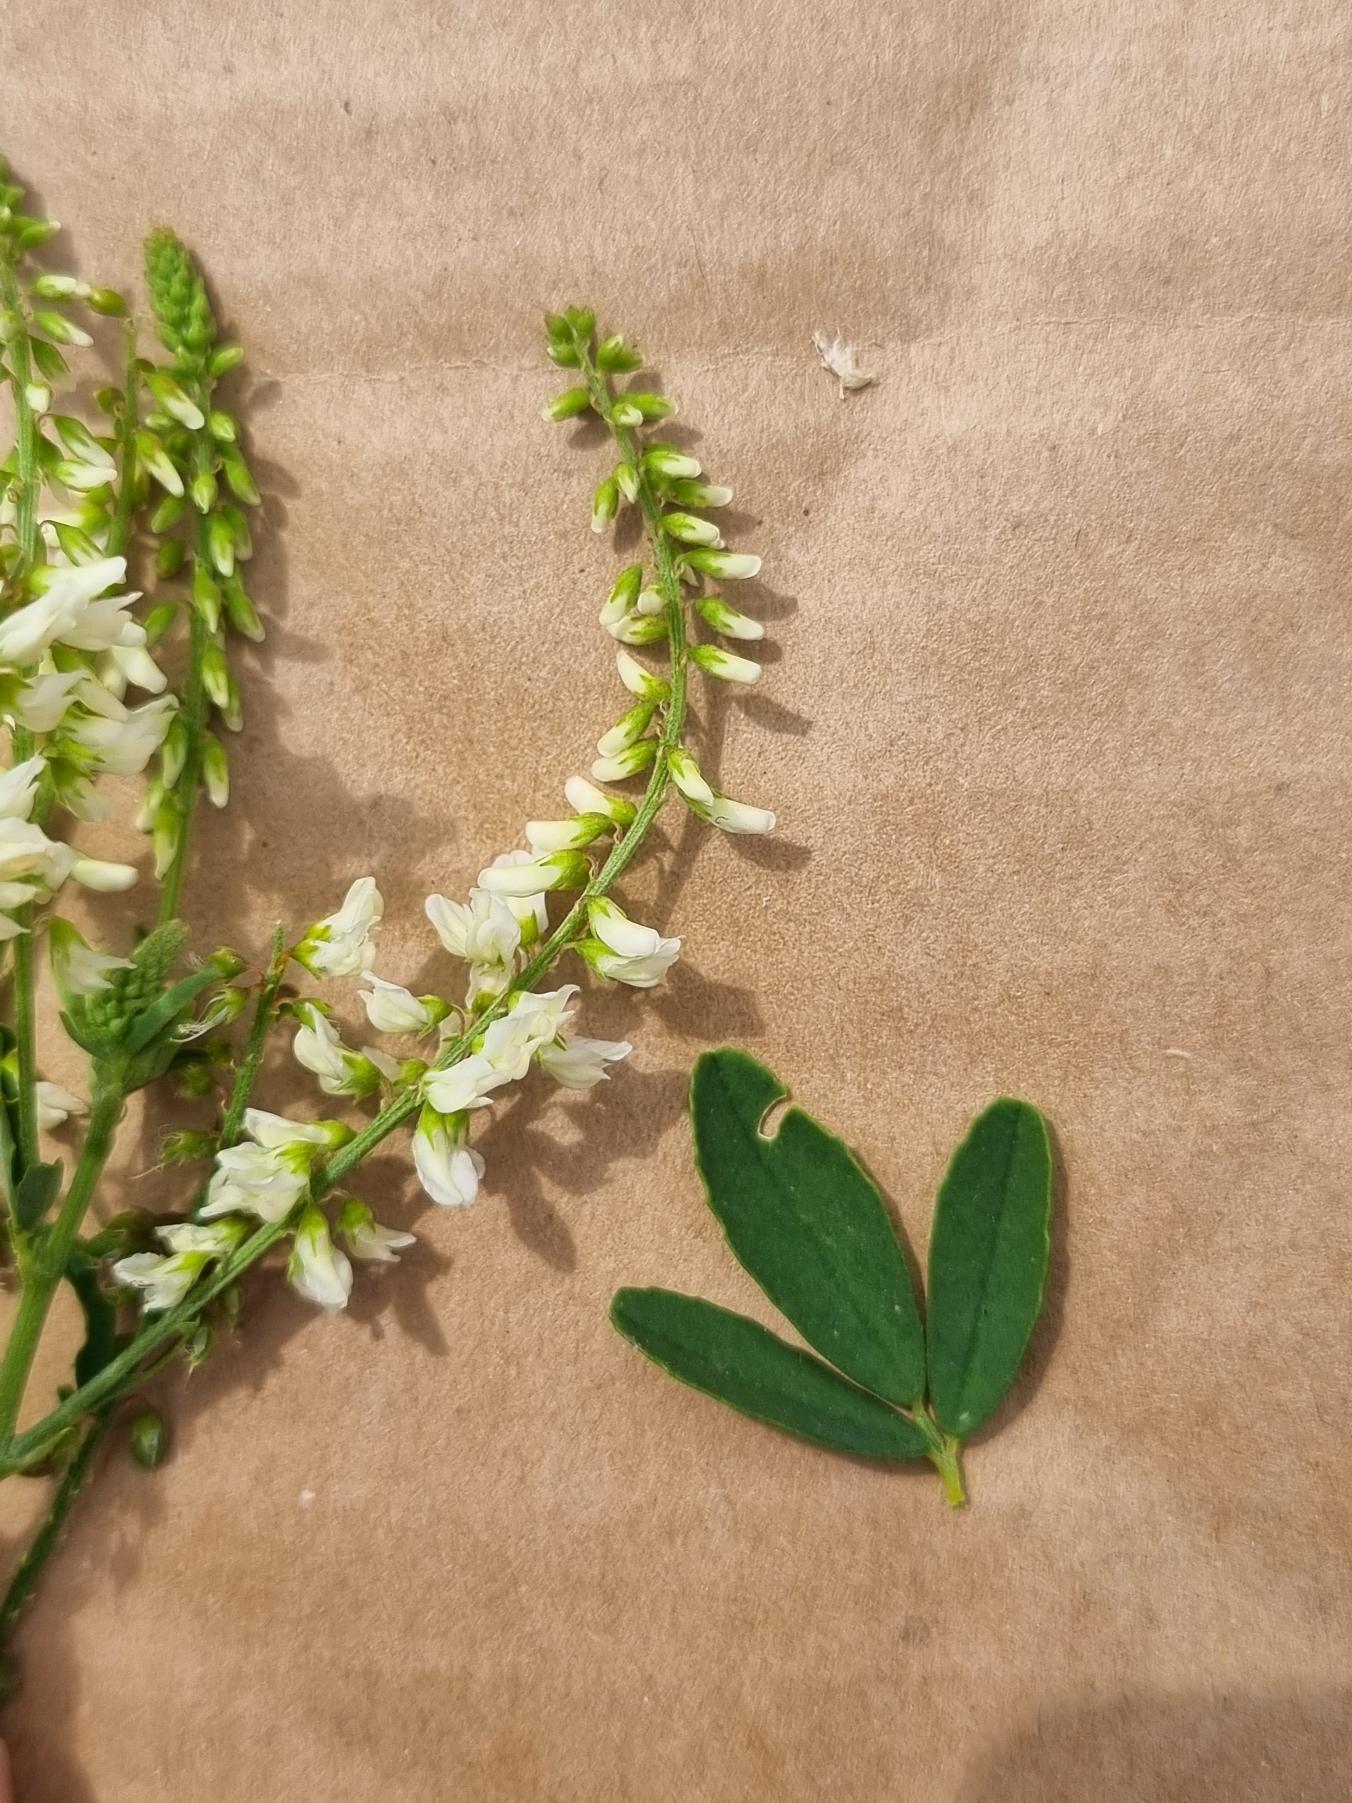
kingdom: Plantae
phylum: Tracheophyta
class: Magnoliopsida
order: Fabales
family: Fabaceae
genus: Melilotus
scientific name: Melilotus albus
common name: Hvid stenkløver
